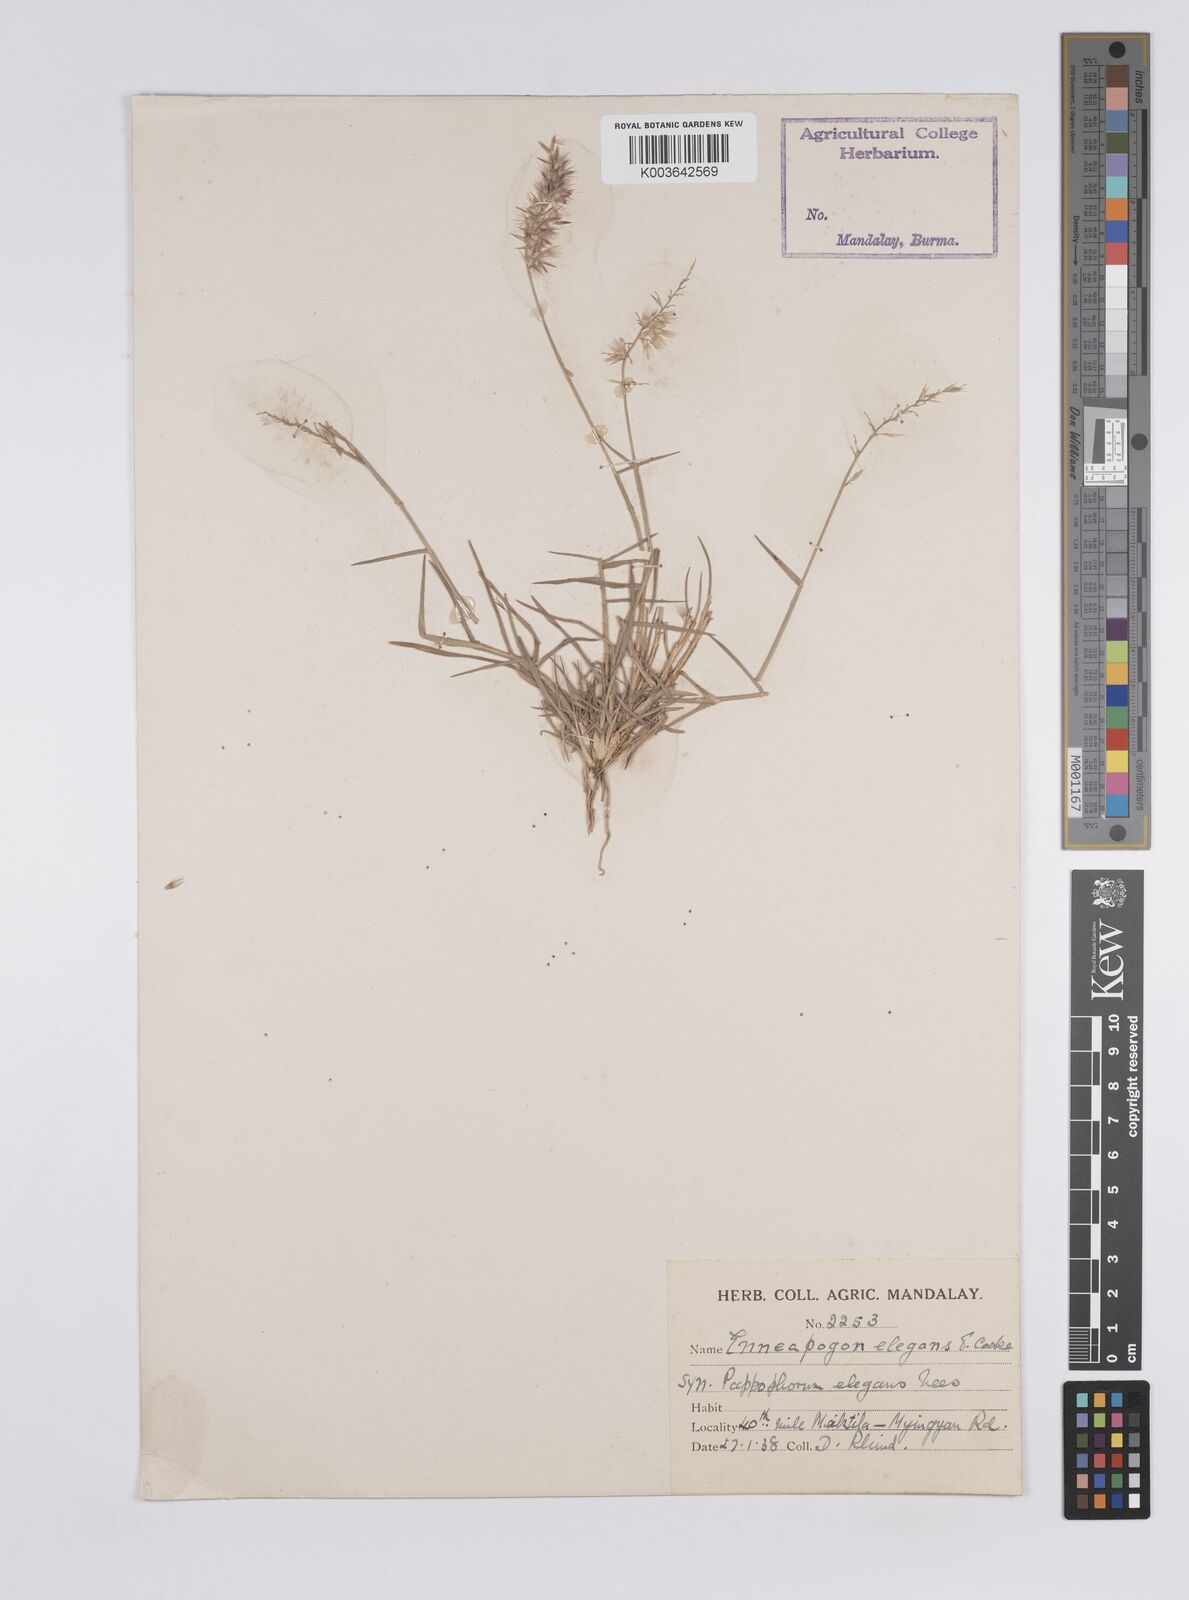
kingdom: Plantae
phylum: Tracheophyta
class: Liliopsida
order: Poales
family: Poaceae
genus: Enneapogon
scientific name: Enneapogon persicus
